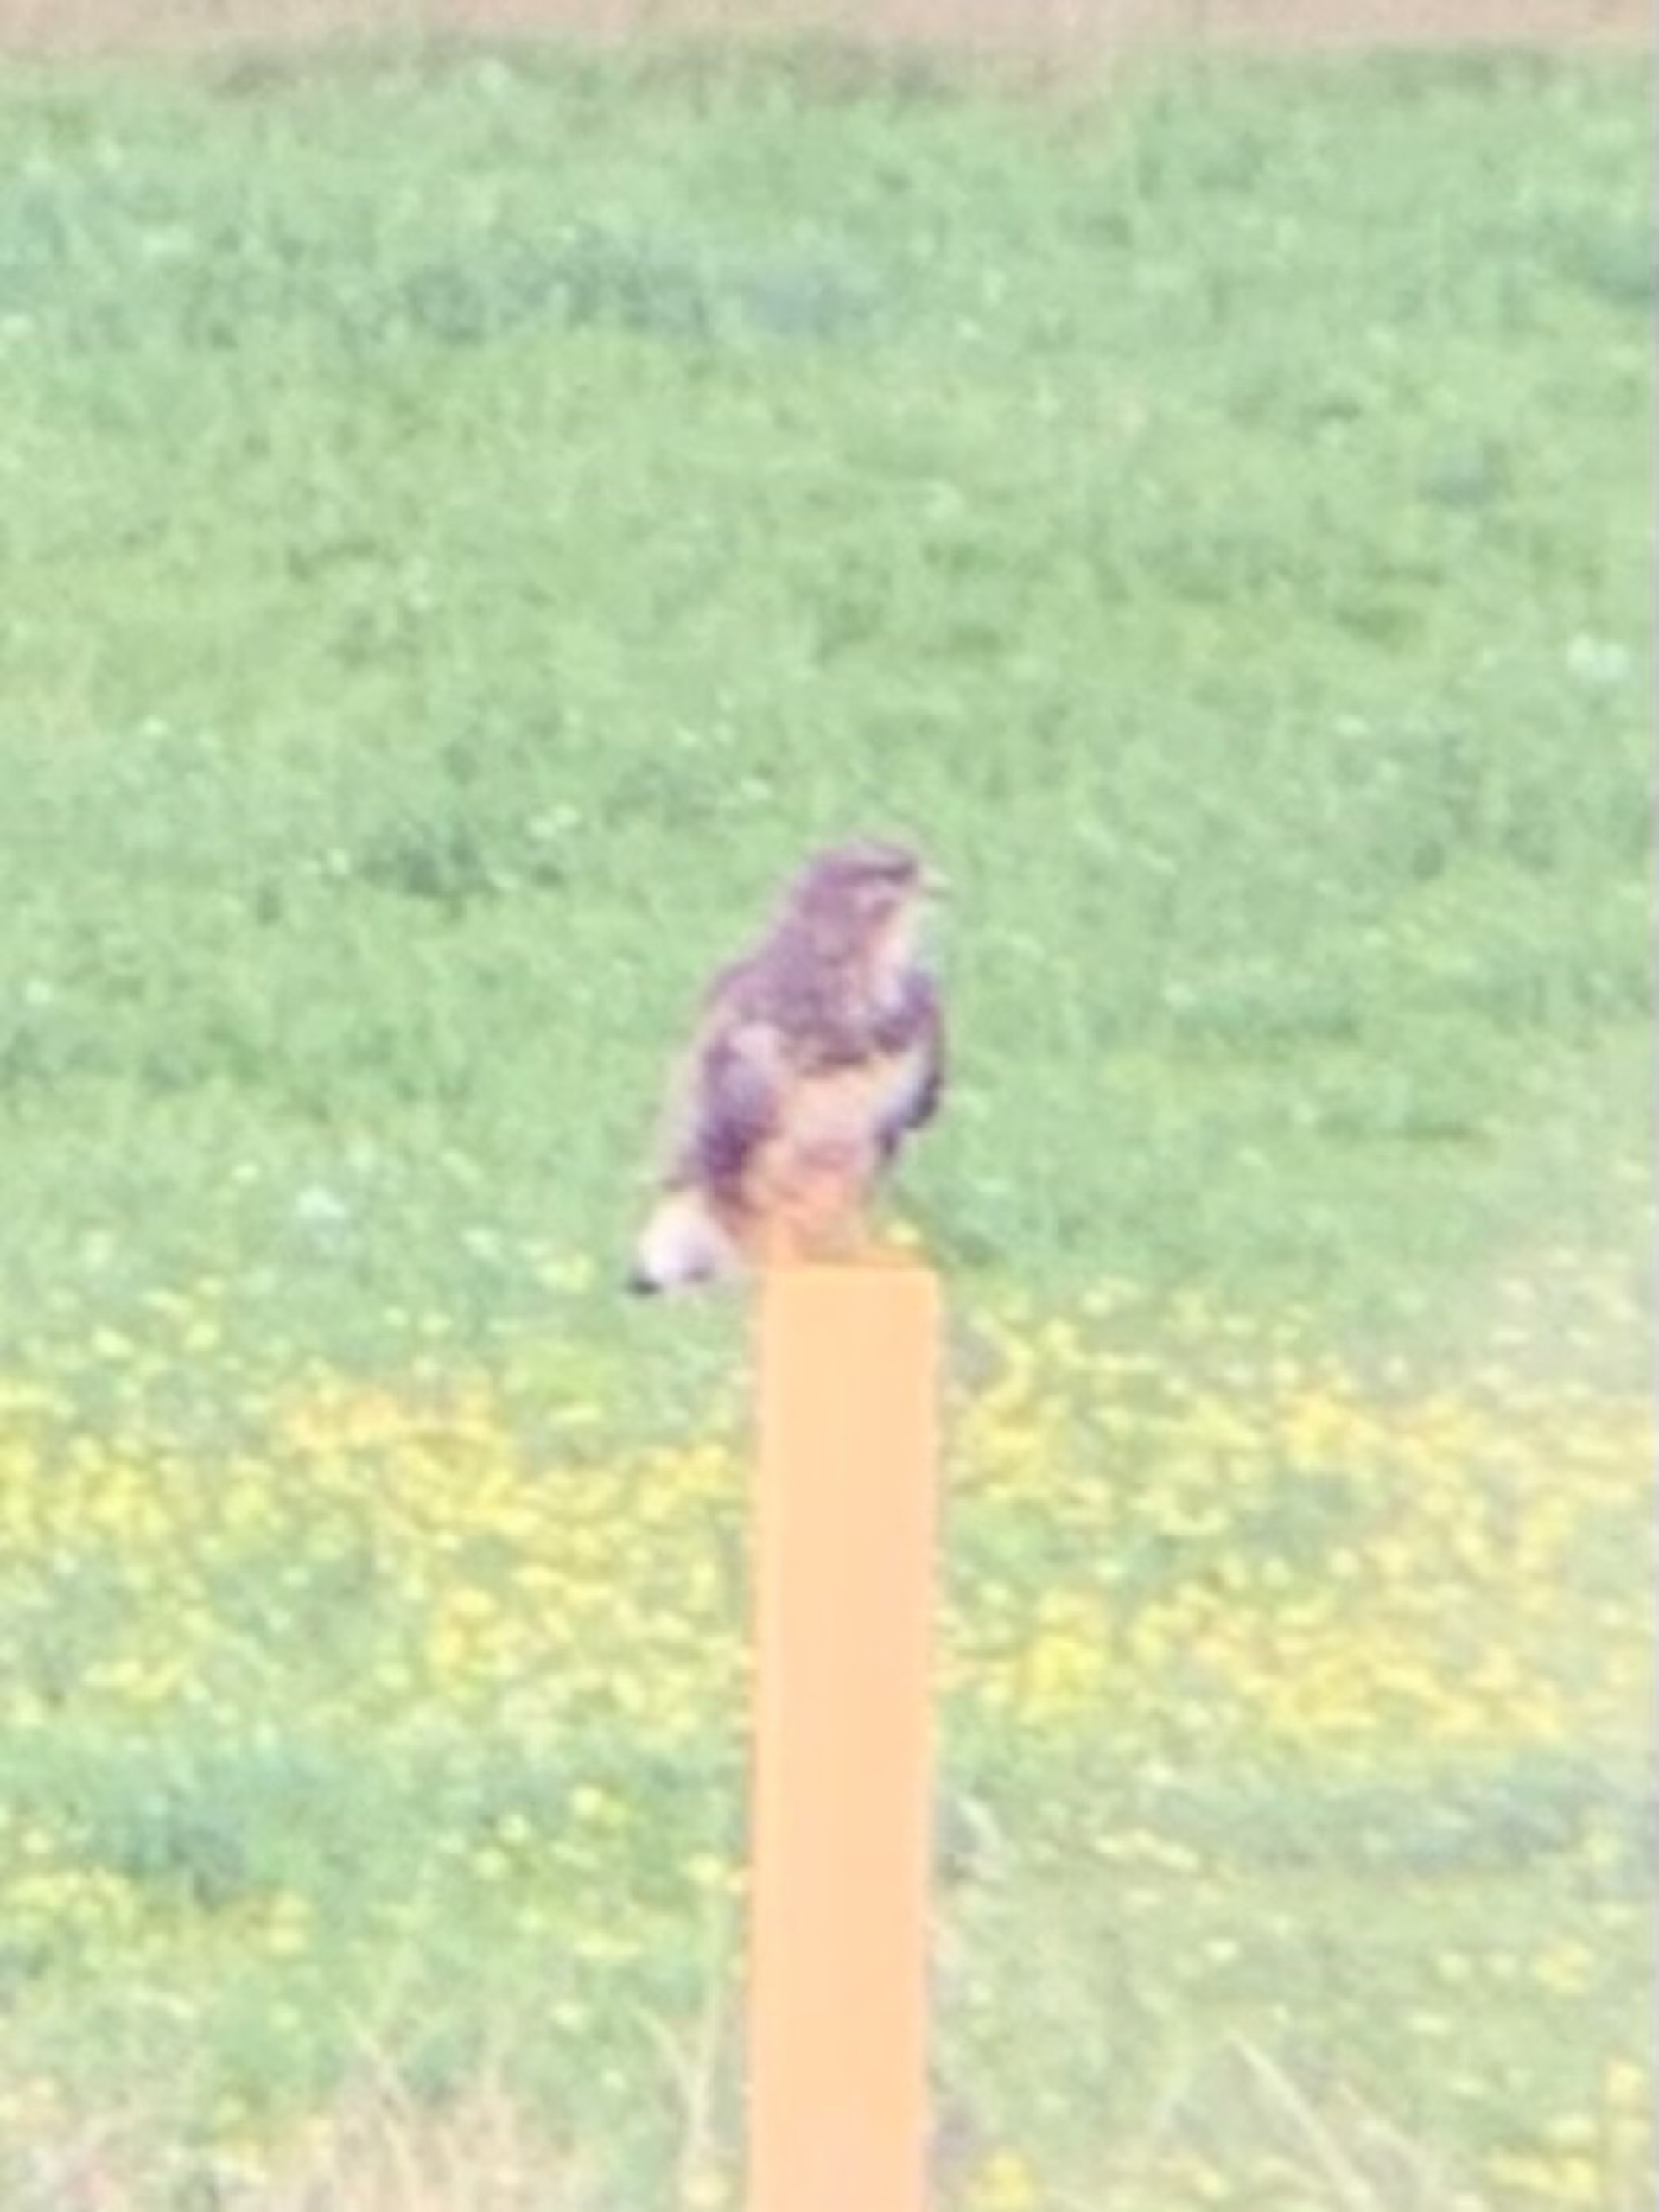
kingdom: Animalia
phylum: Chordata
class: Aves
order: Accipitriformes
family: Accipitridae
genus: Buteo
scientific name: Buteo buteo
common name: Musvåge
